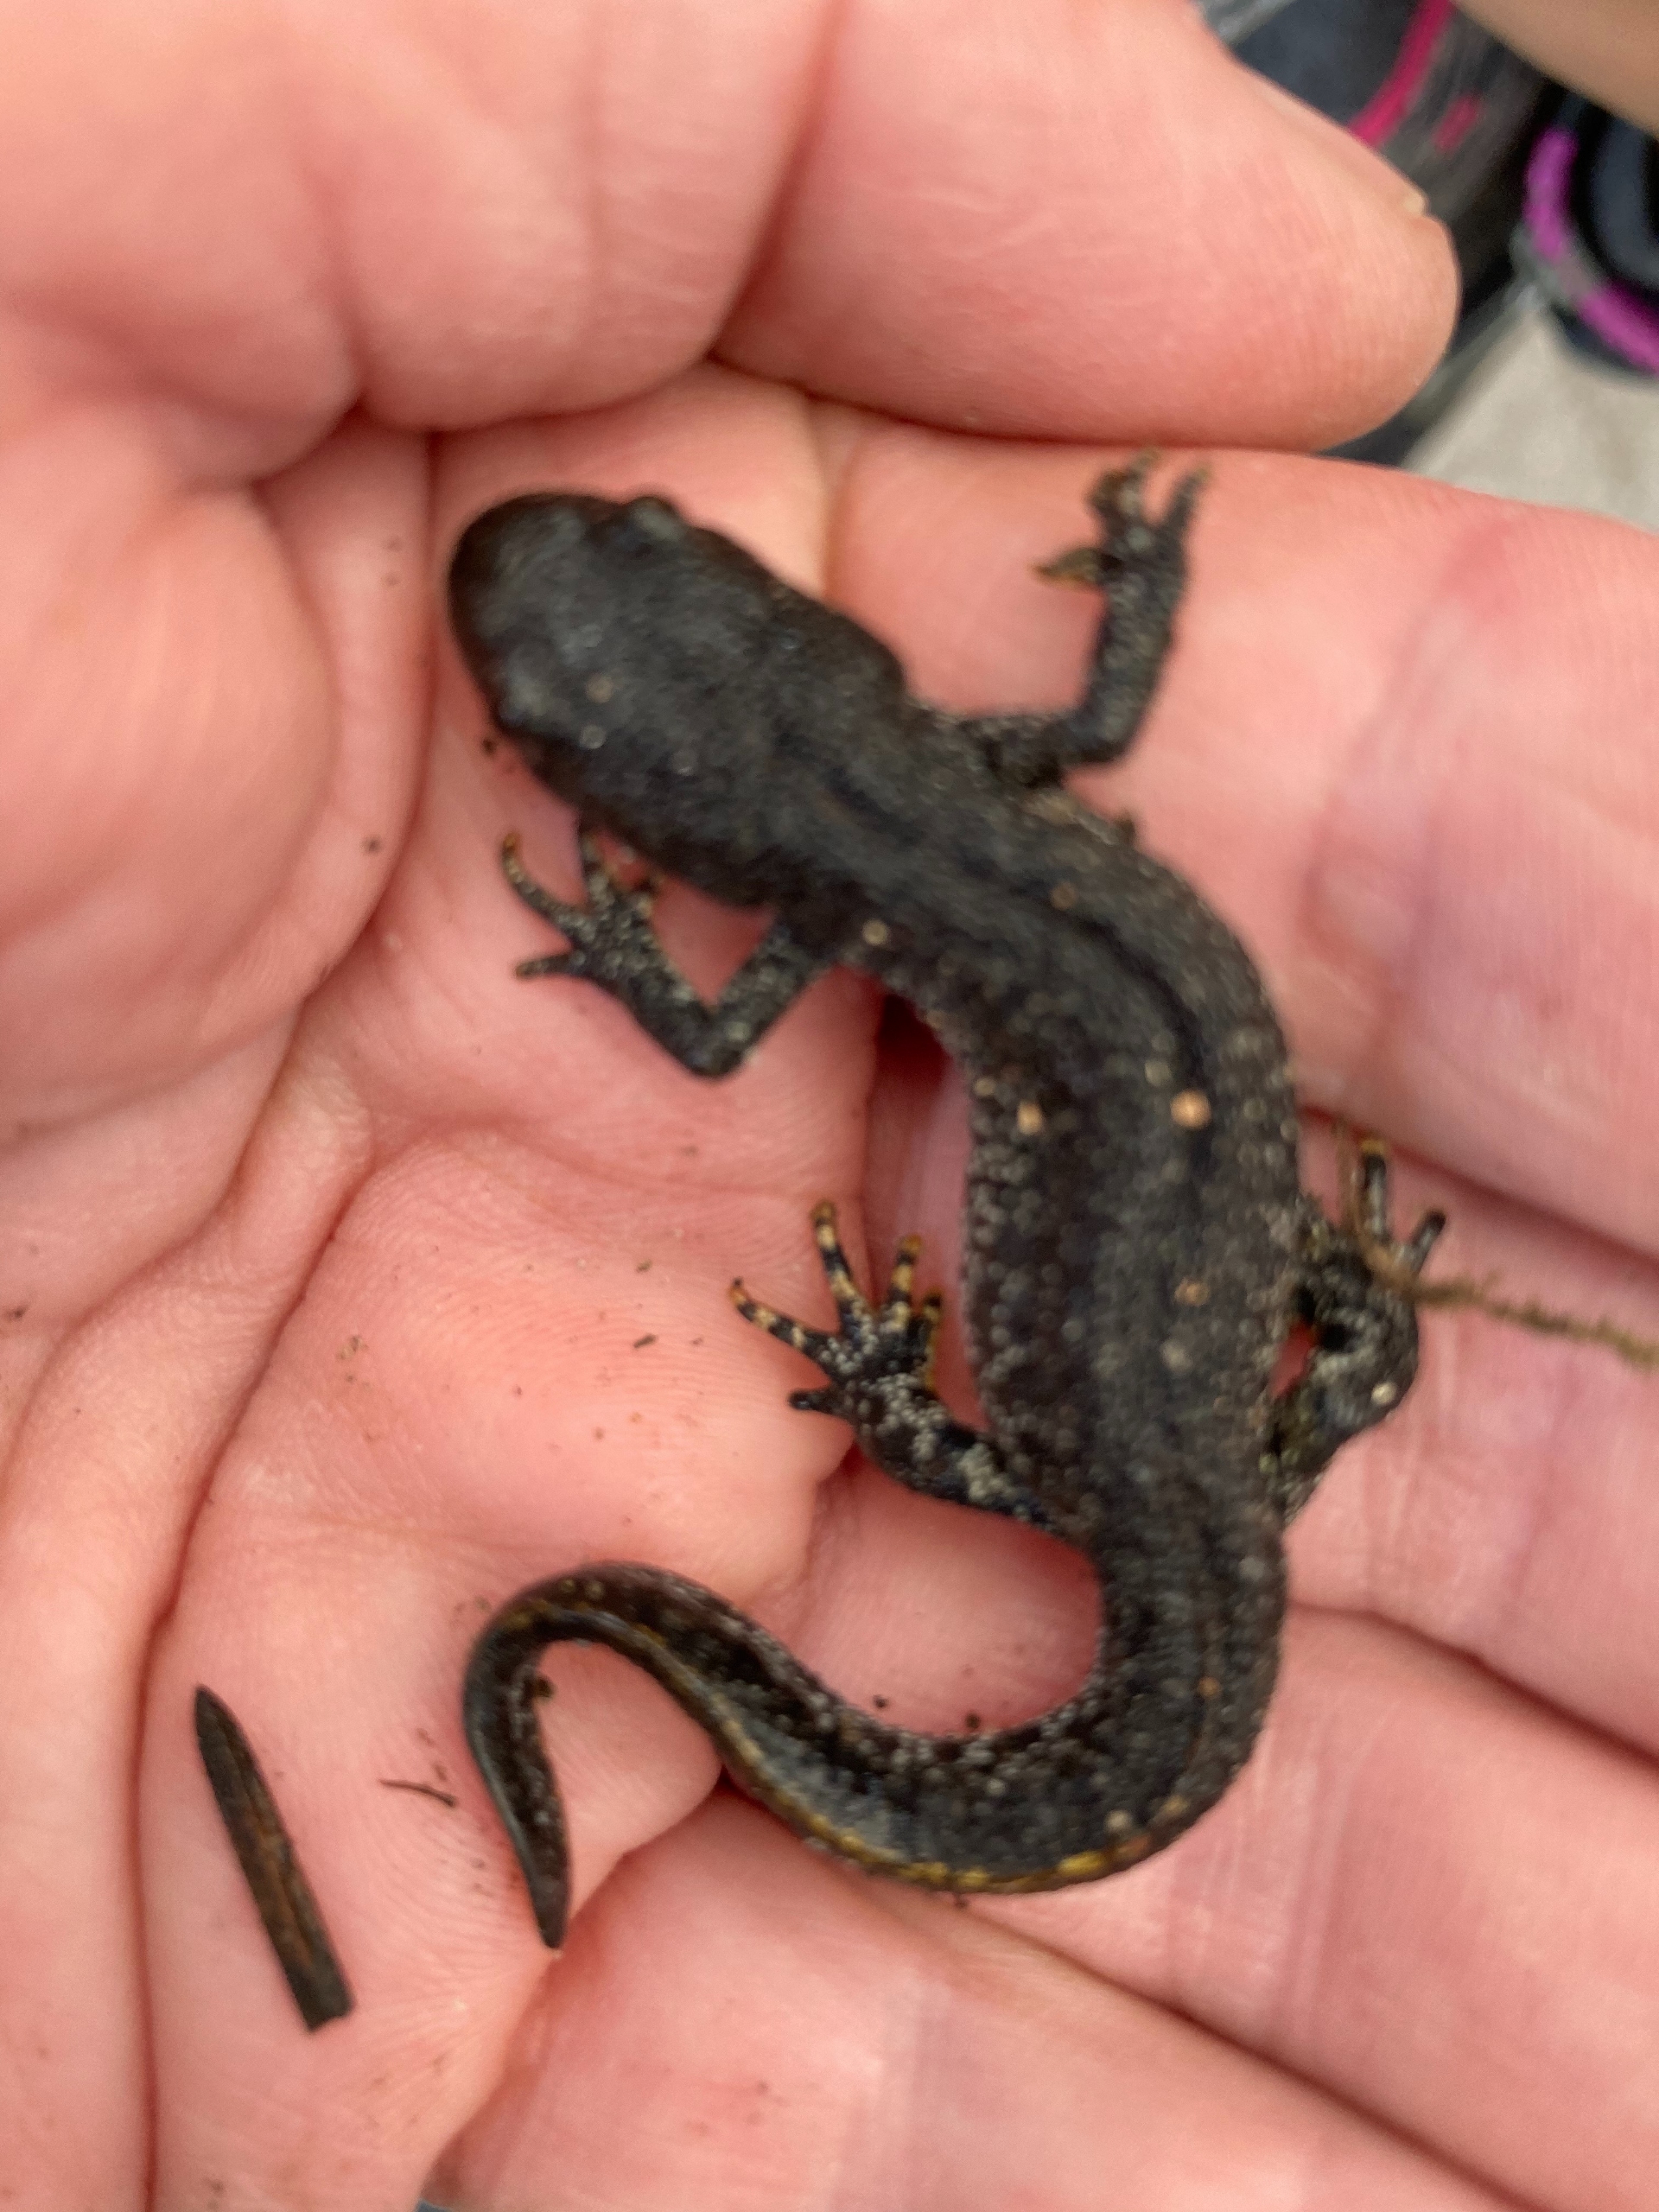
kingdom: Animalia
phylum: Chordata
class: Amphibia
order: Caudata
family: Salamandridae
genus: Triturus
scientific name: Triturus cristatus
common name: Stor vandsalamander
